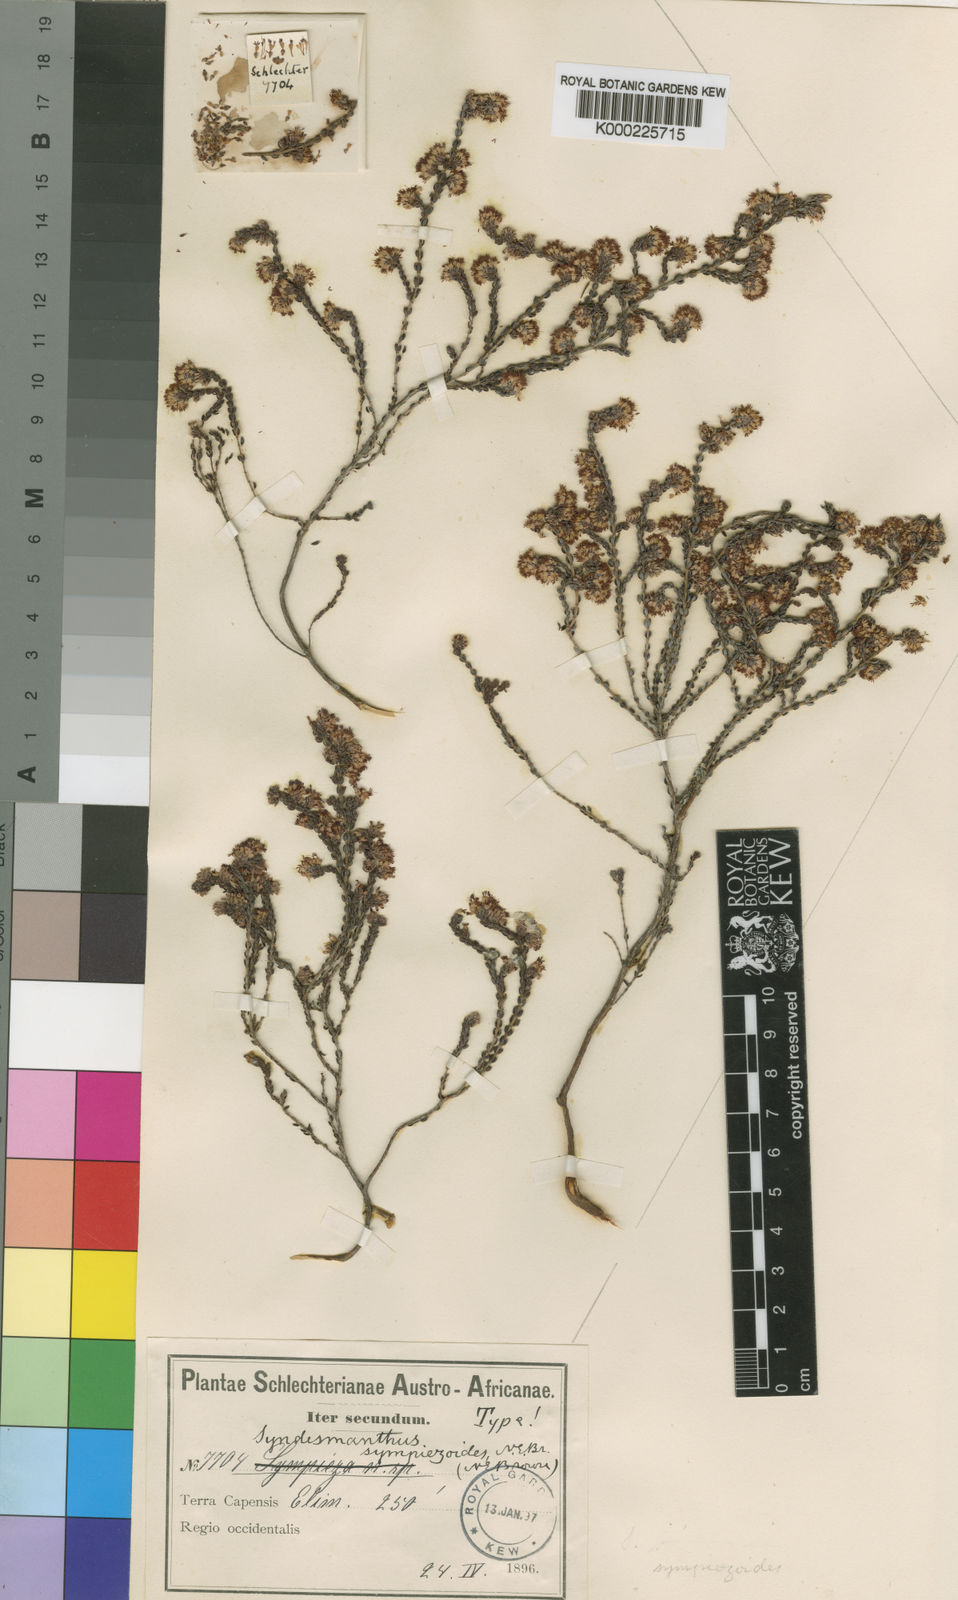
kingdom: Plantae
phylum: Tracheophyta
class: Magnoliopsida
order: Ericales
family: Ericaceae
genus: Erica
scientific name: Erica globiceps
